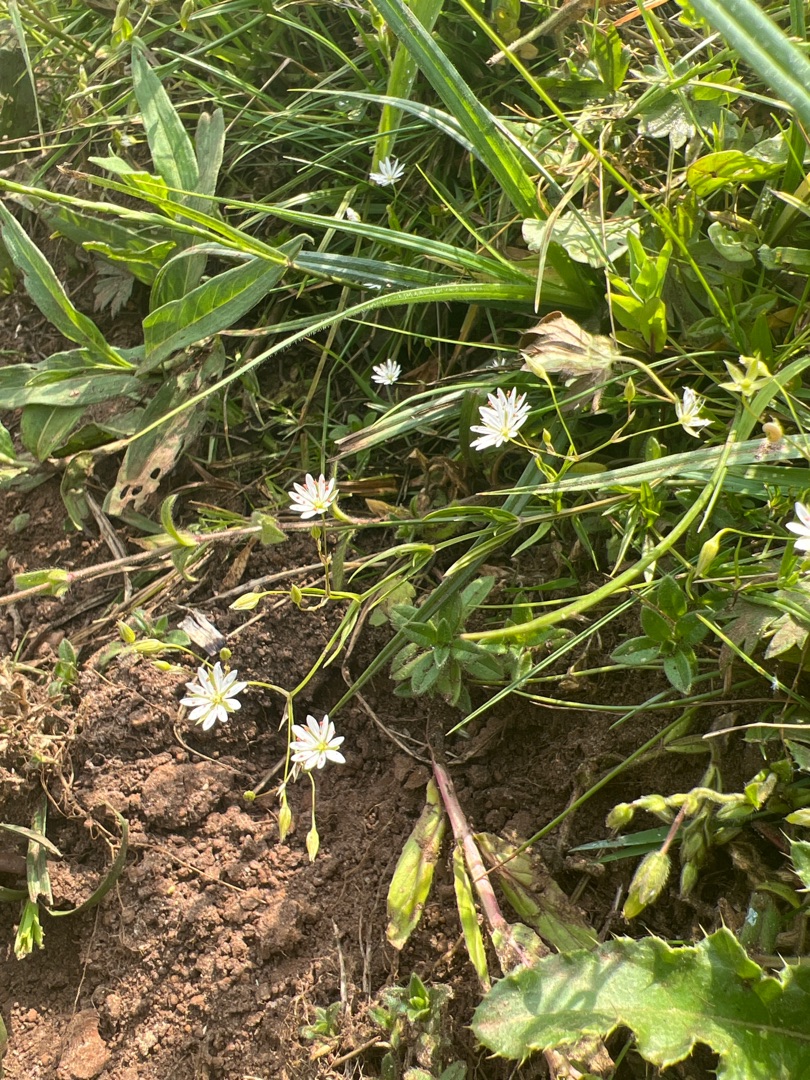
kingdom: Plantae
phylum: Tracheophyta
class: Magnoliopsida
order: Caryophyllales
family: Caryophyllaceae
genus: Stellaria
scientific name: Stellaria graminea
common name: Græsbladet fladstjerne
